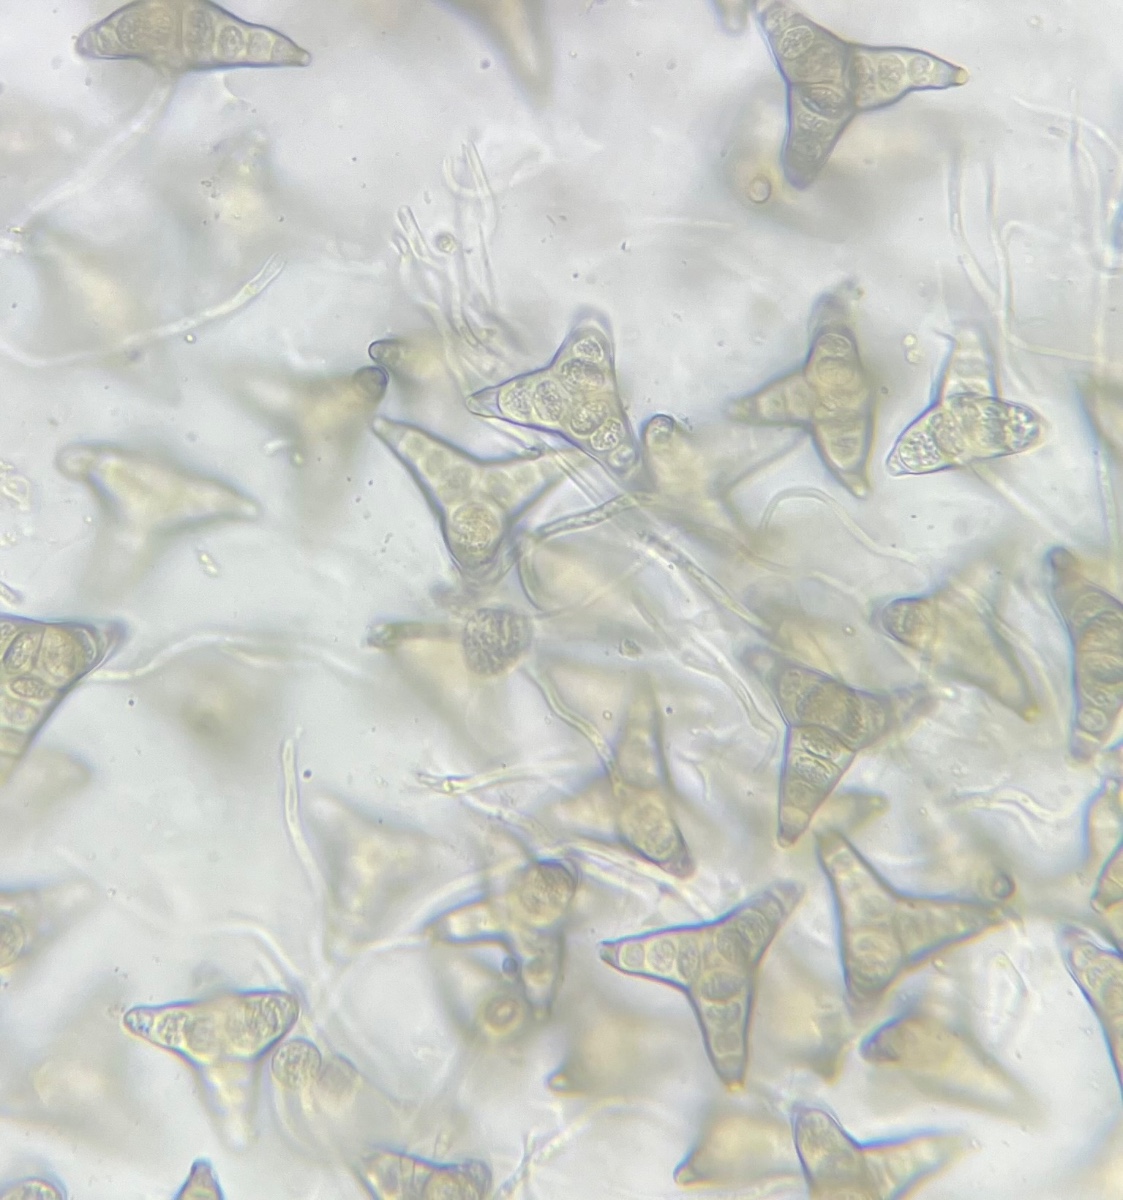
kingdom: Fungi
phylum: Ascomycota
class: Sordariomycetes
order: Diaporthales
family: Asterosporiaceae
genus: Asterosporium
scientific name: Asterosporium asterospermum
